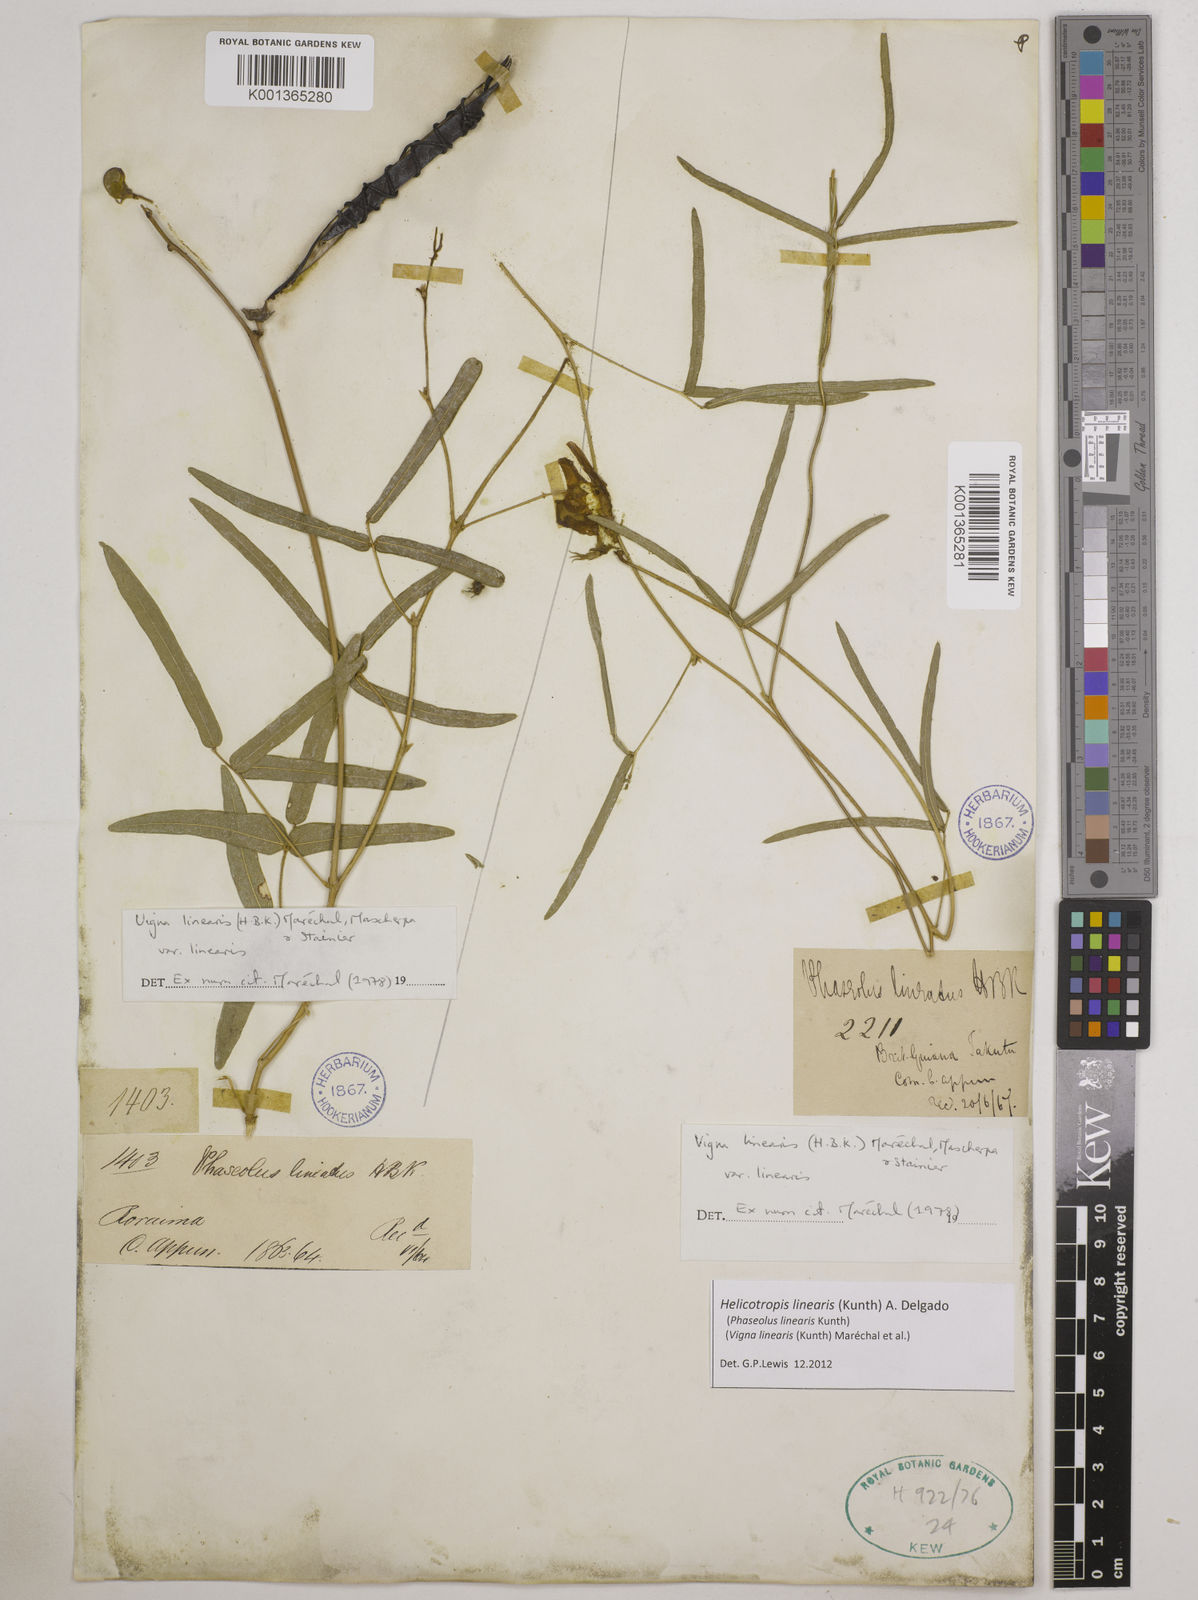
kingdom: Plantae
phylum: Tracheophyta
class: Magnoliopsida
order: Fabales
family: Fabaceae
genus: Helicotropis
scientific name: Helicotropis linearis
